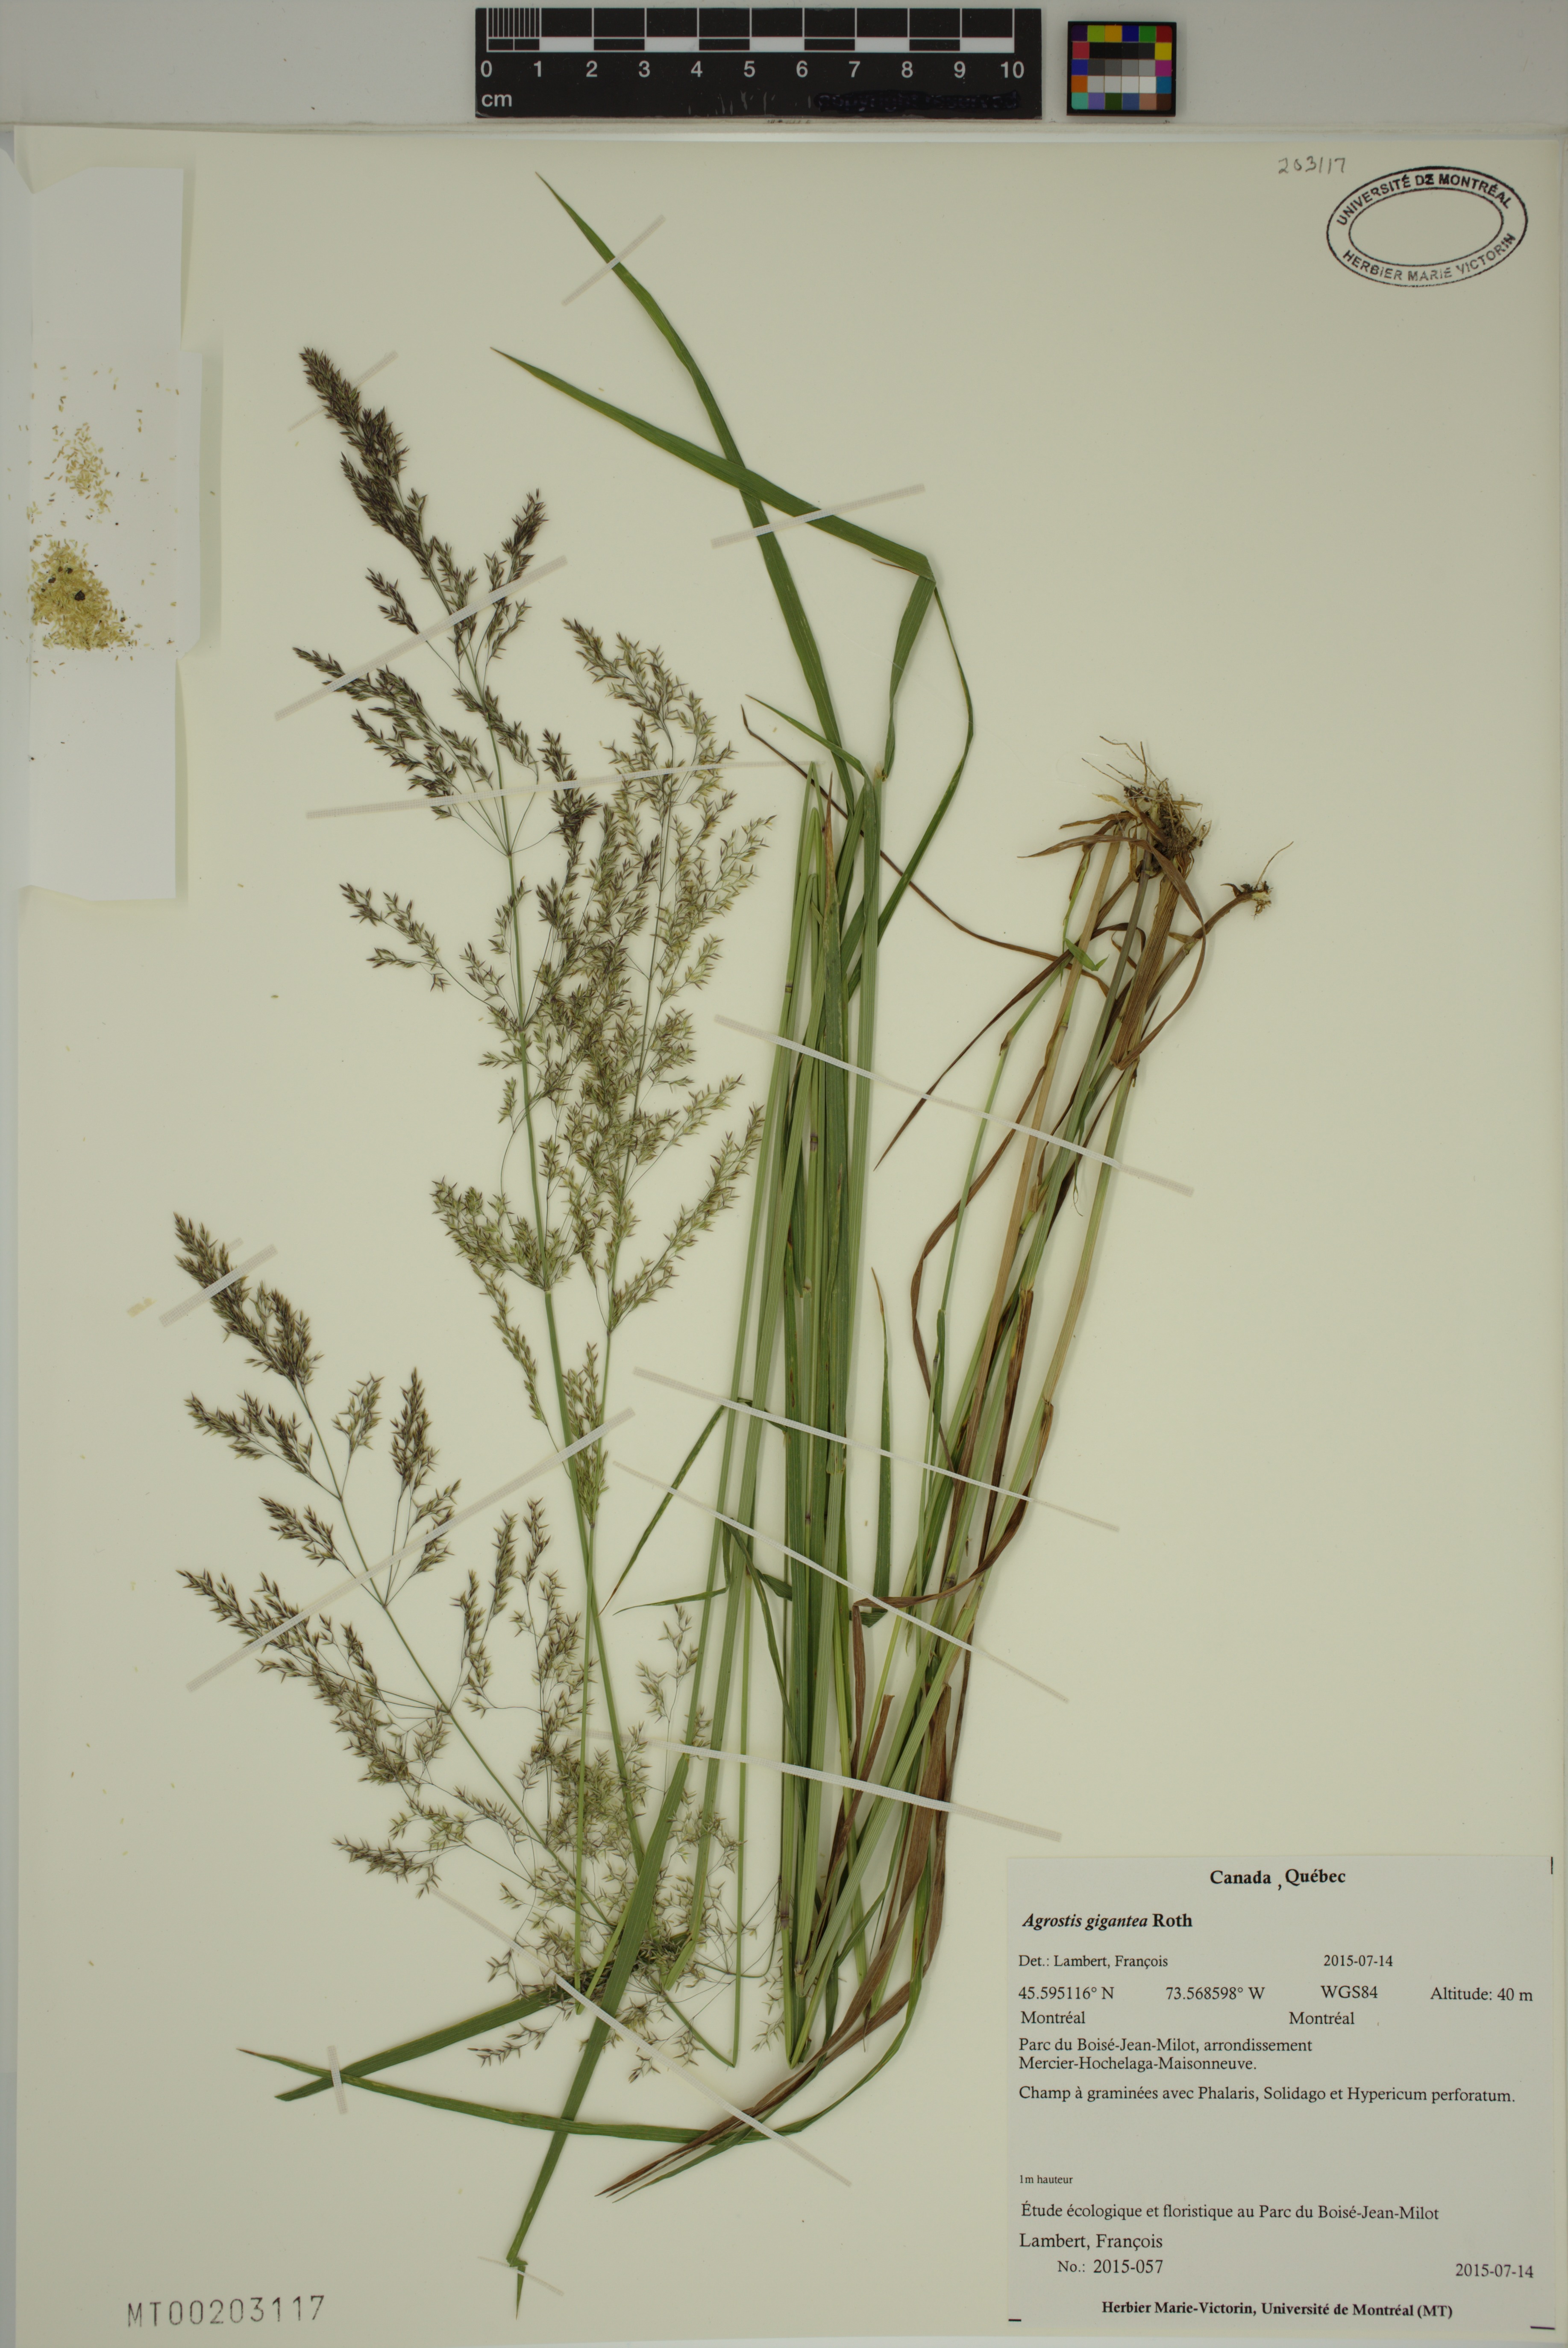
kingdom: Plantae
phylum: Tracheophyta
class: Liliopsida
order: Poales
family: Poaceae
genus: Agrostis
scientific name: Agrostis gigantea
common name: Black bent
